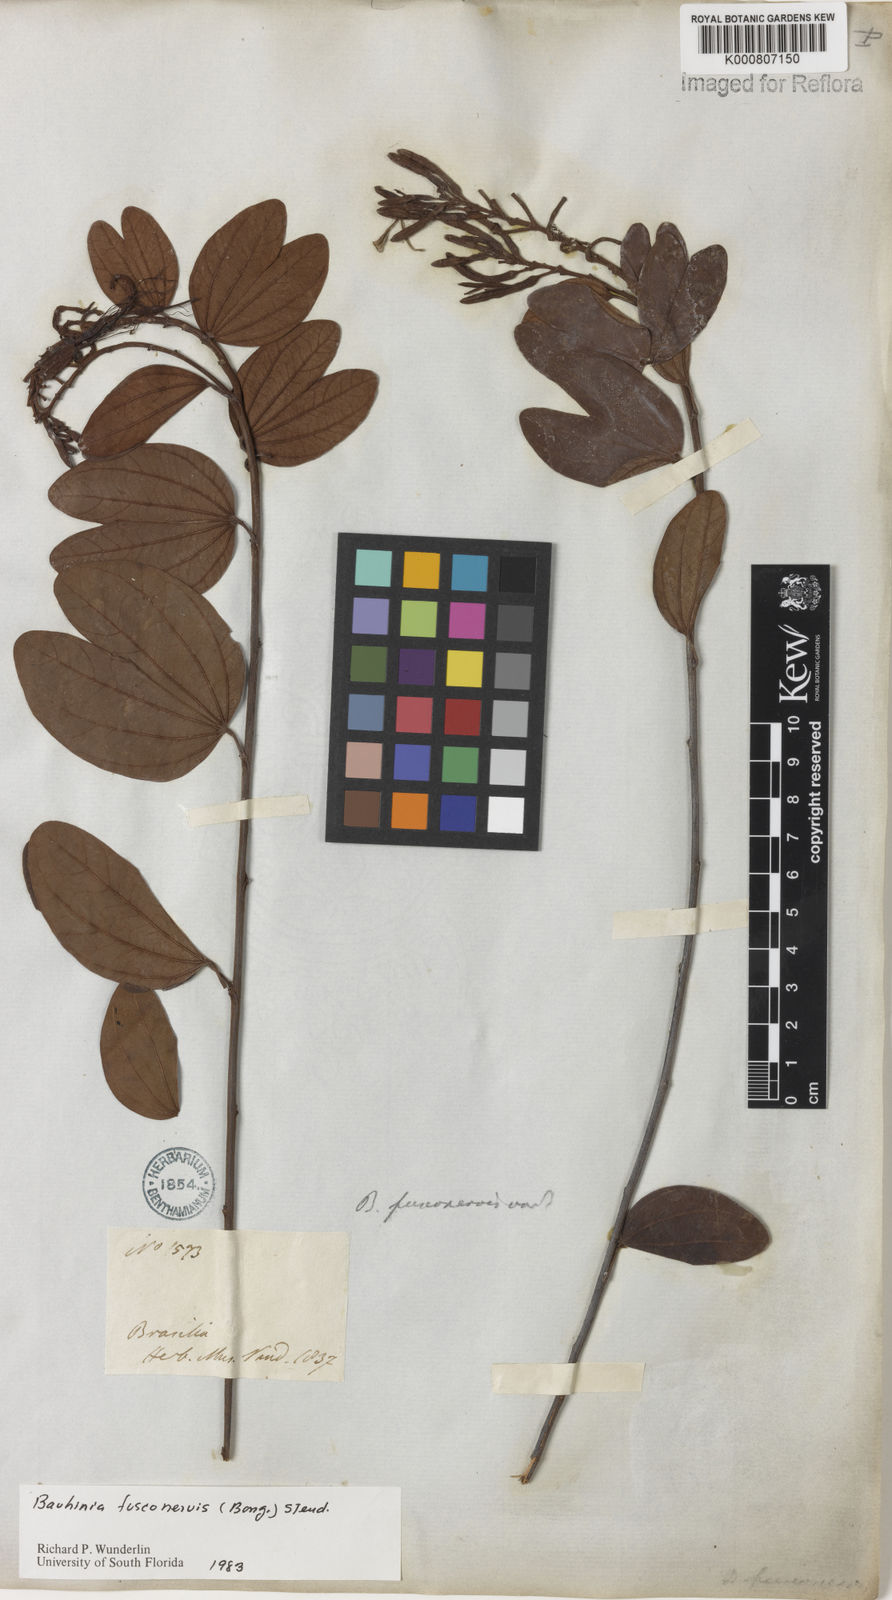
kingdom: Plantae
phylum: Tracheophyta
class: Magnoliopsida
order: Fabales
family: Fabaceae
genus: Bauhinia
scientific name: Bauhinia
